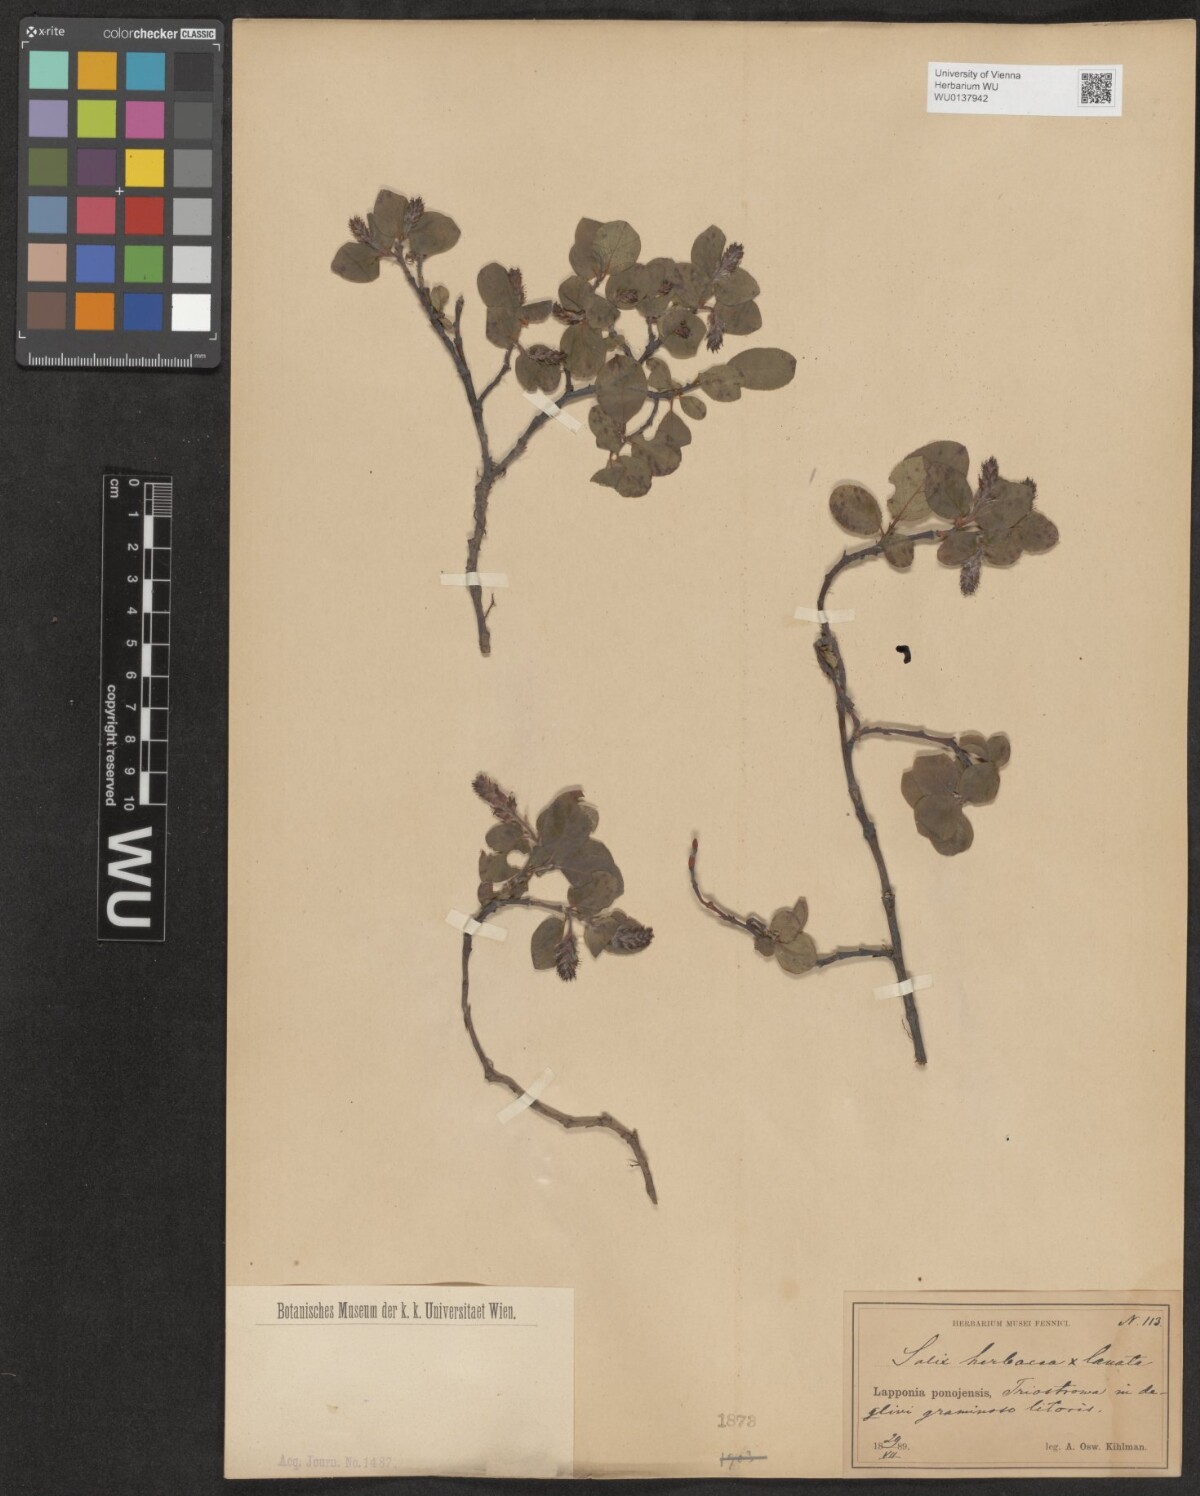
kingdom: Plantae
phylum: Tracheophyta
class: Magnoliopsida
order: Malpighiales
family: Salicaceae
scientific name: Salicaceae
